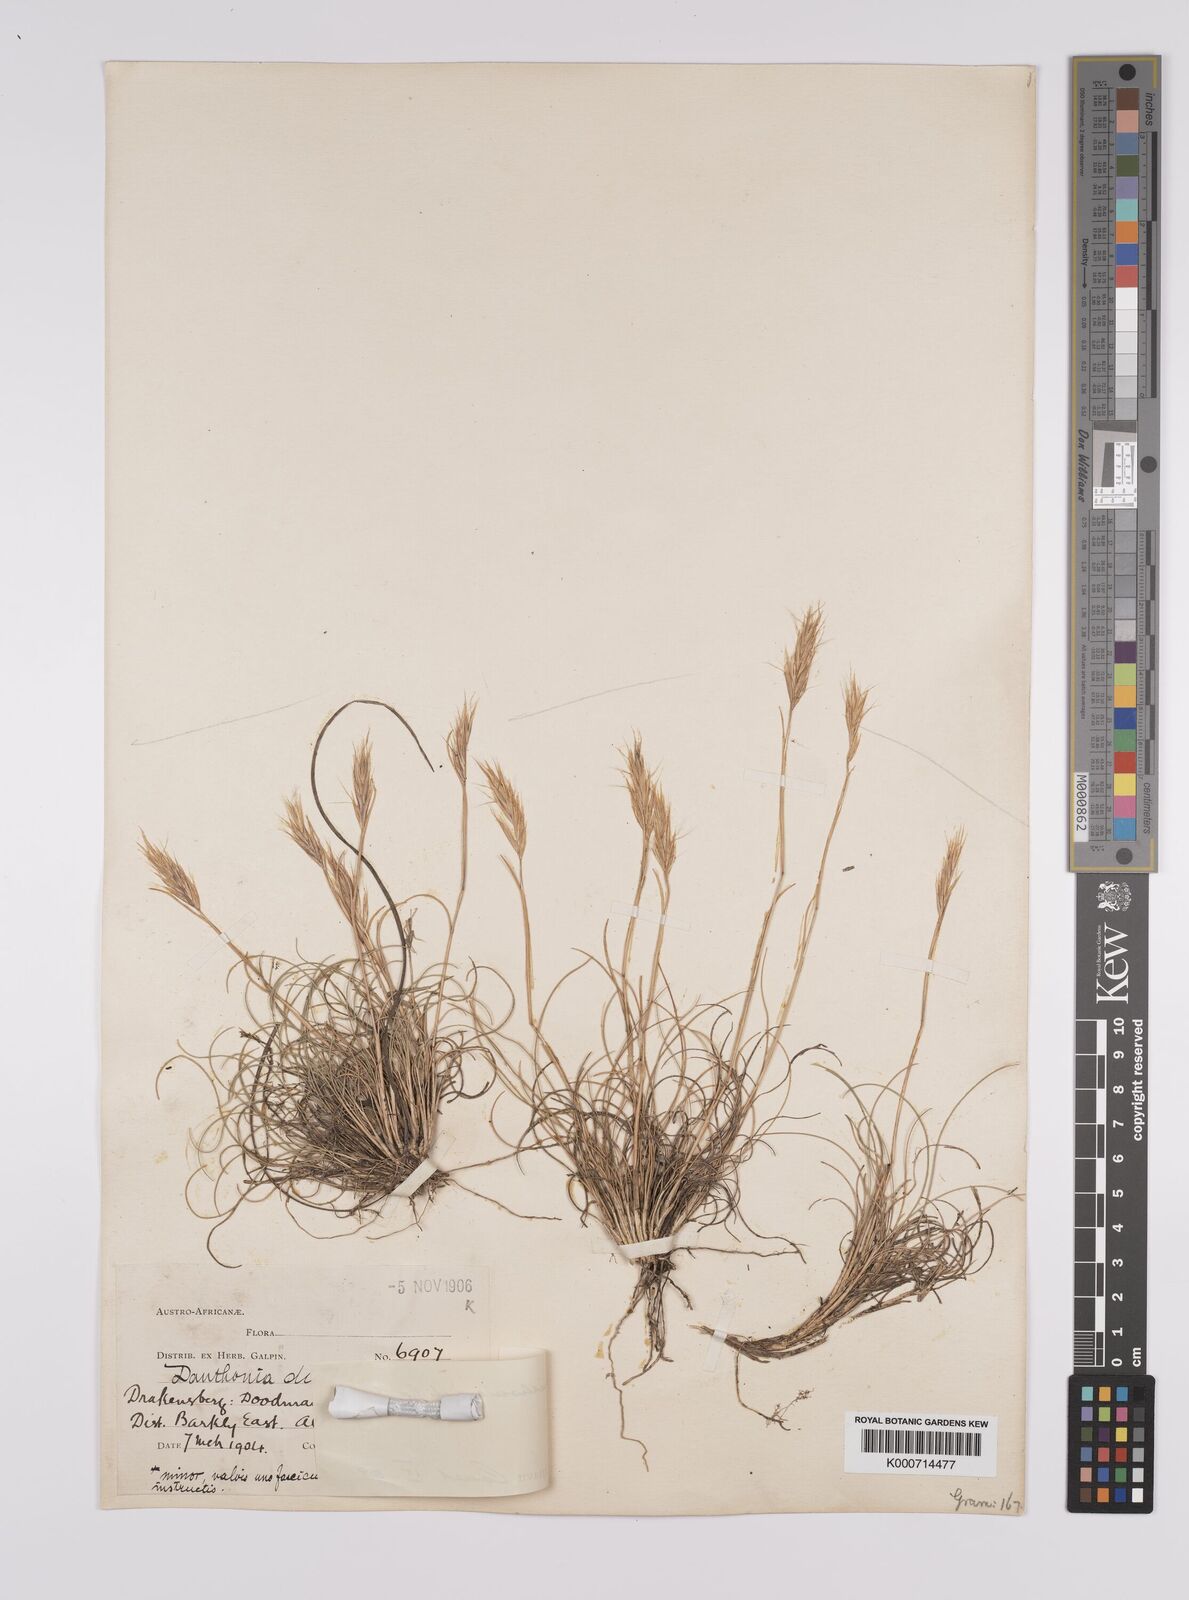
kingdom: Plantae
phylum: Tracheophyta
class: Liliopsida
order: Poales
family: Poaceae
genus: Tenaxia
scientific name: Tenaxia disticha
